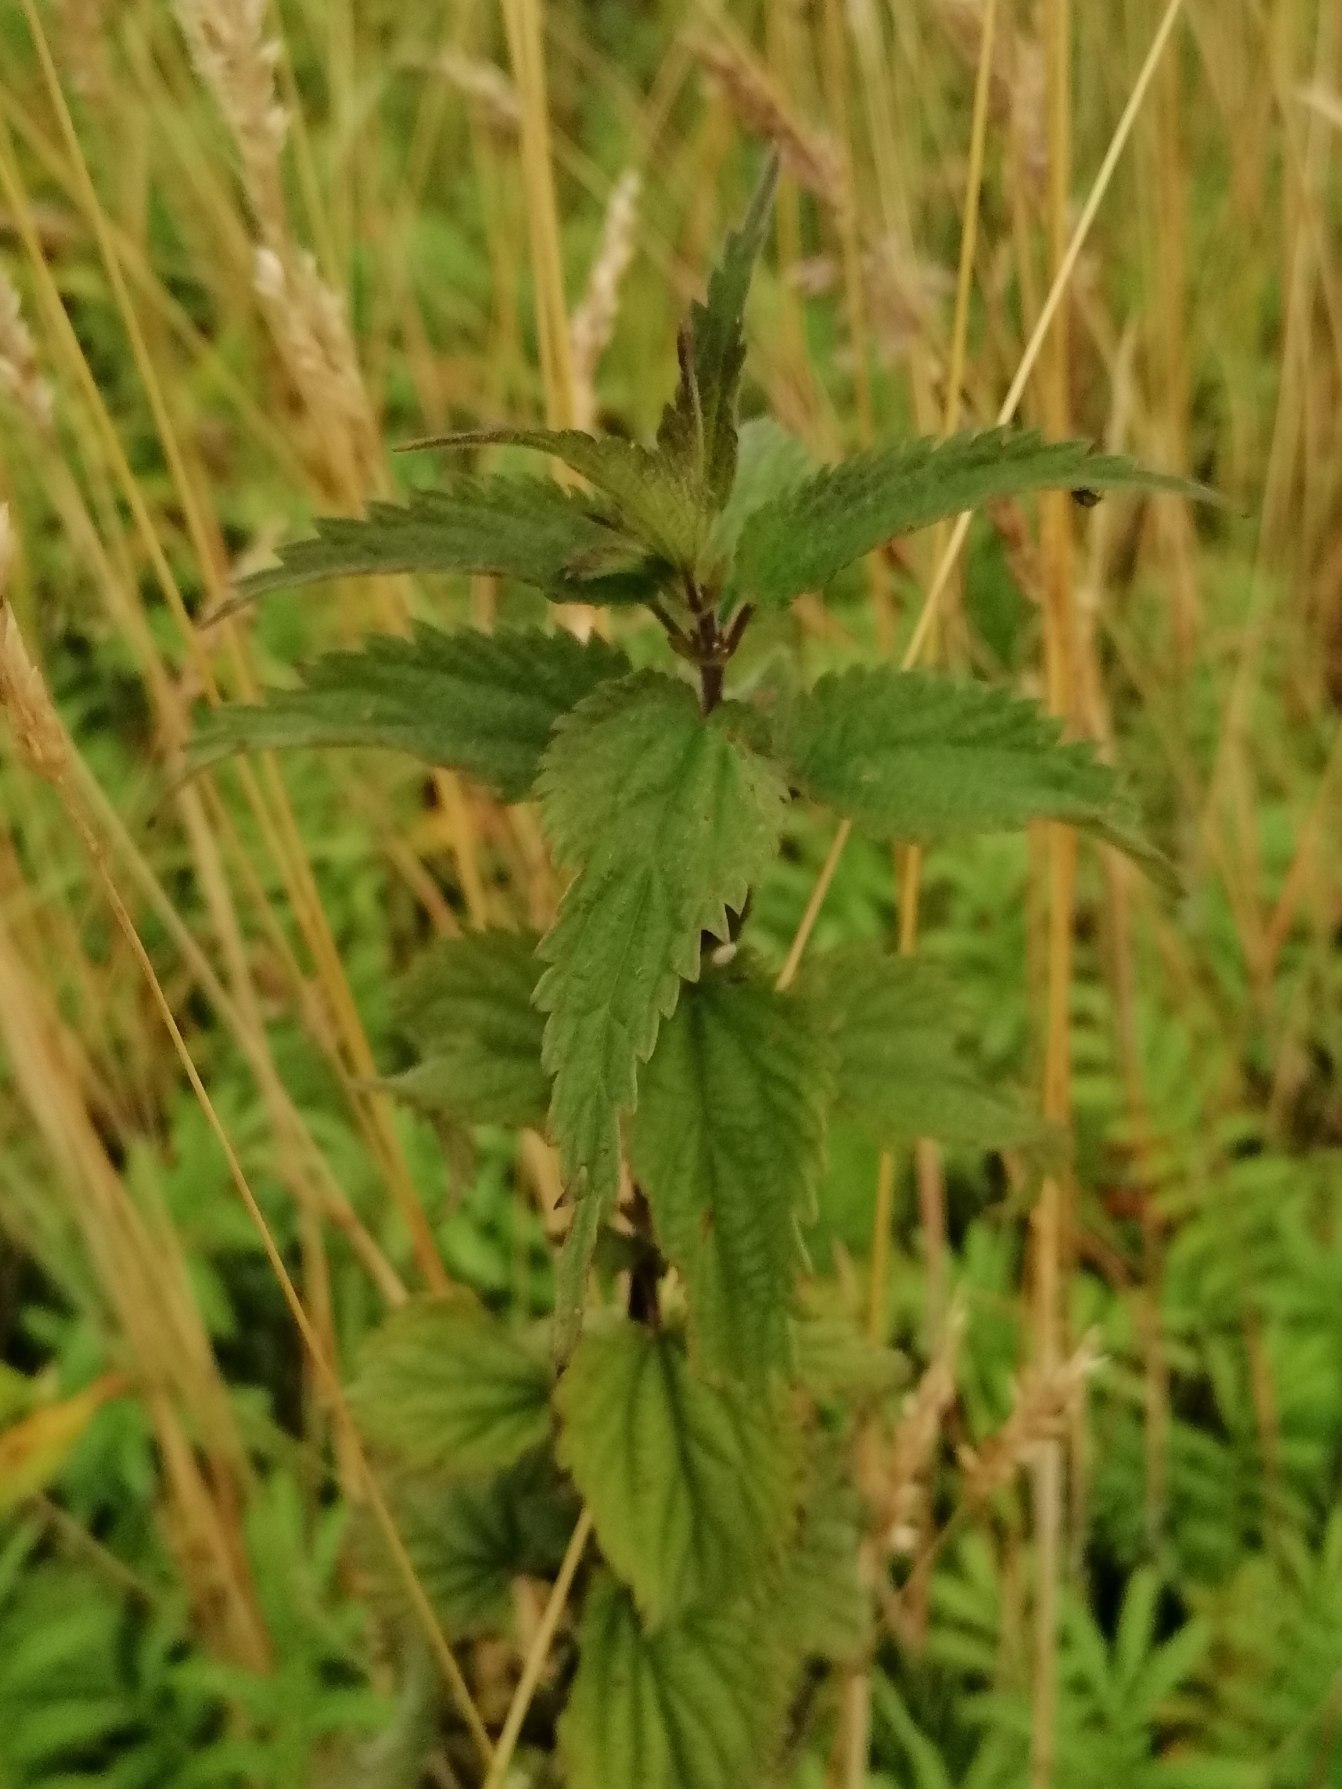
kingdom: Plantae
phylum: Tracheophyta
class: Magnoliopsida
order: Rosales
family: Urticaceae
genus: Urtica
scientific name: Urtica dioica
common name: Stor nælde
